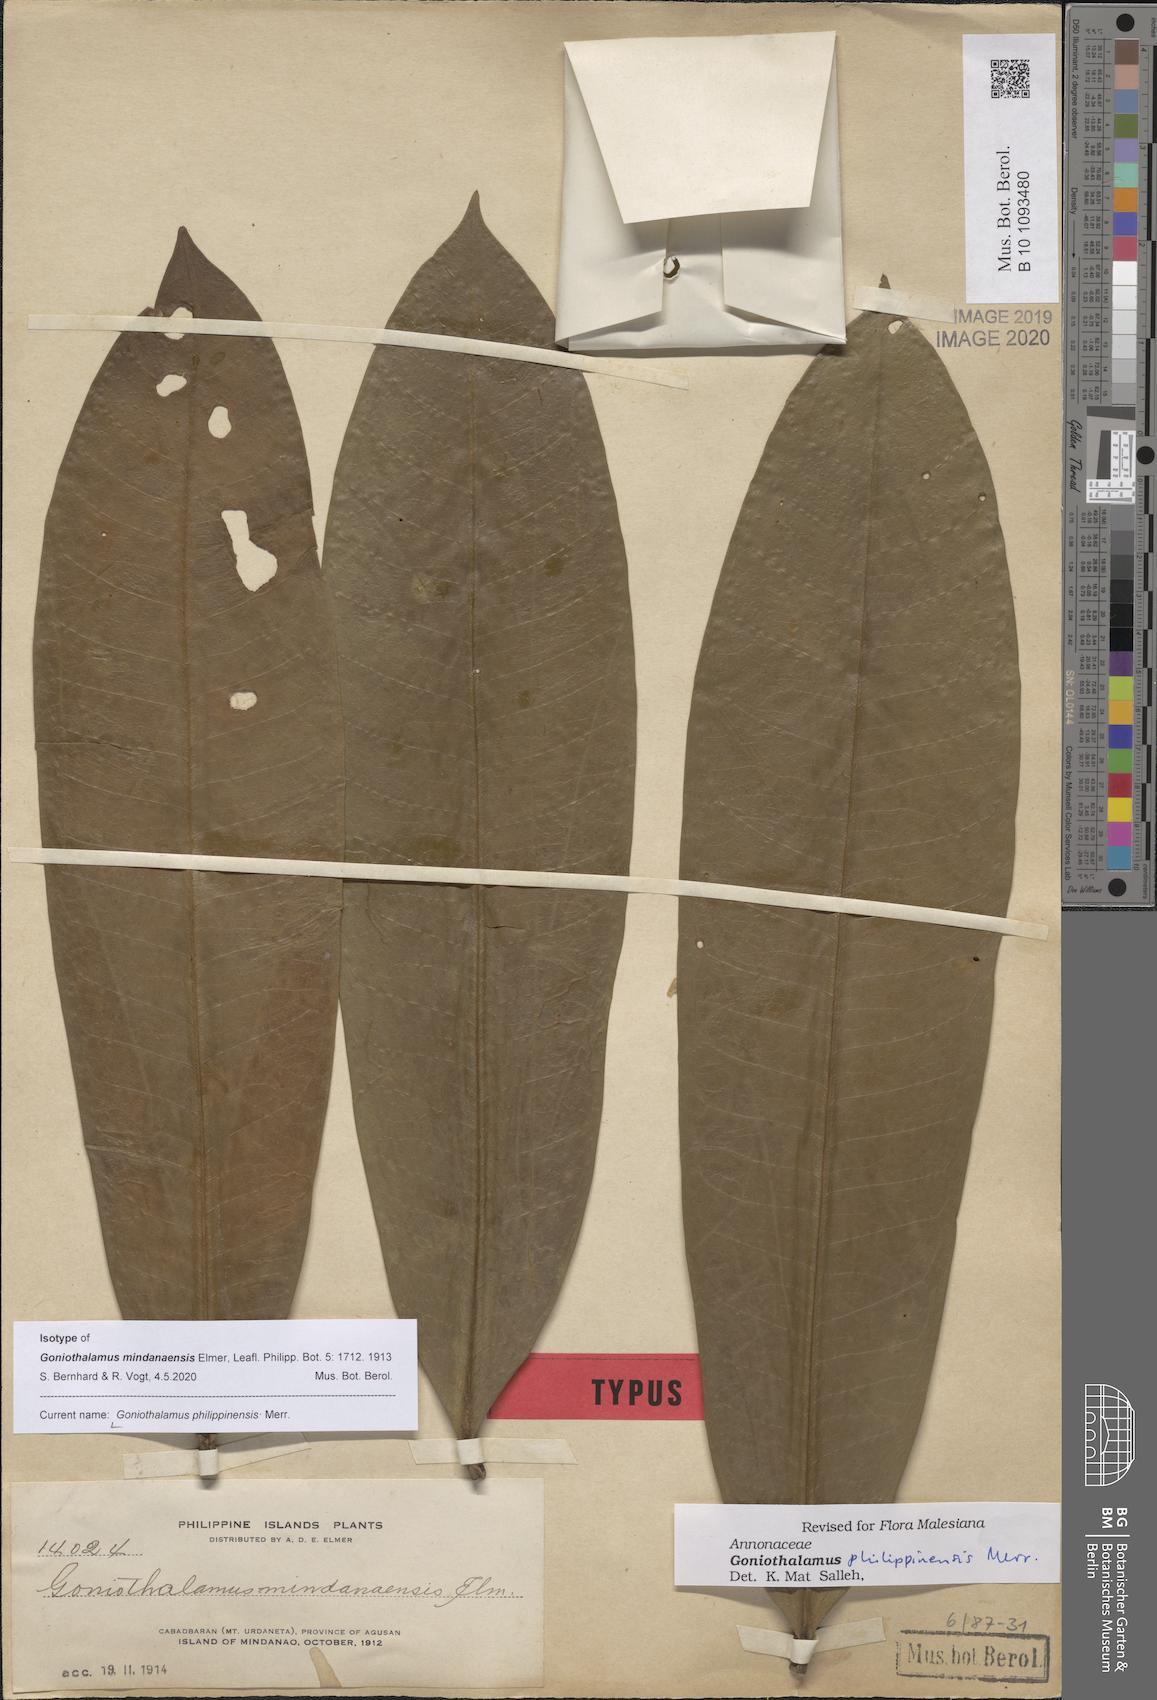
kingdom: Plantae
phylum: Tracheophyta
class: Magnoliopsida
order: Magnoliales
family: Annonaceae
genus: Goniothalamus
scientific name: Goniothalamus philippinensis
